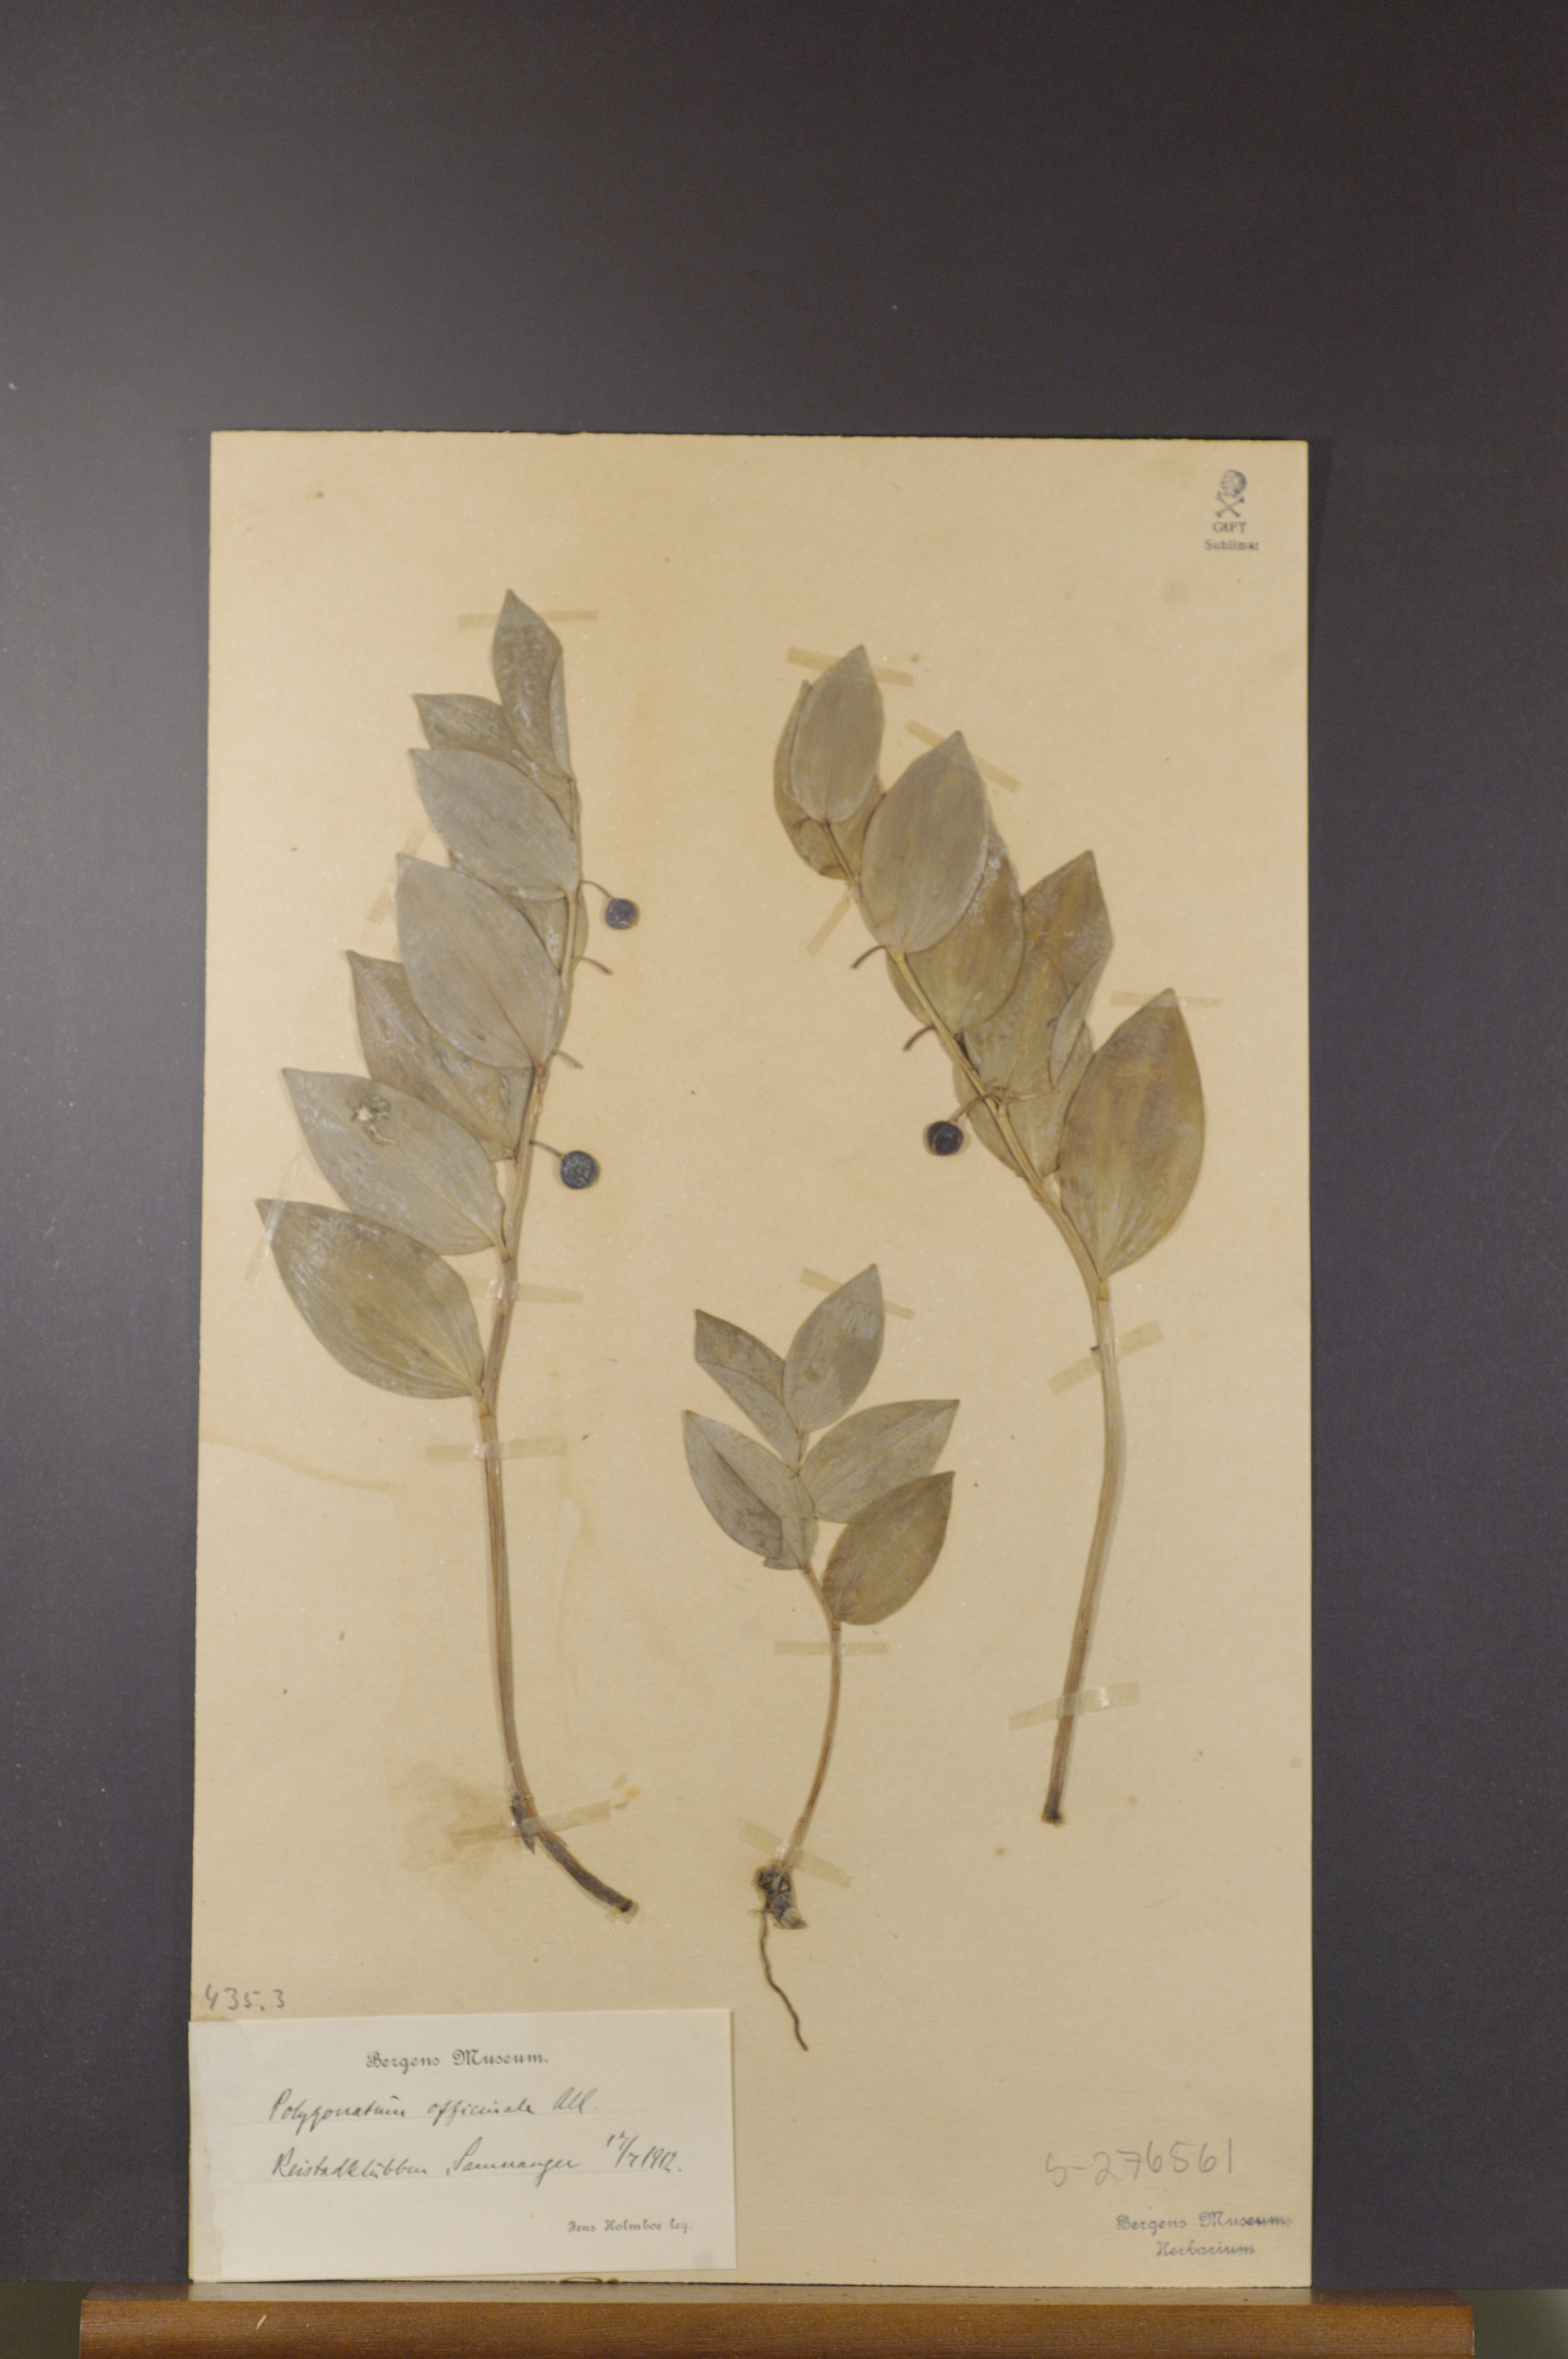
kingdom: Plantae
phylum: Tracheophyta
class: Liliopsida
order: Asparagales
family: Asparagaceae
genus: Polygonatum
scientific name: Polygonatum odoratum
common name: Angular solomon's-seal
